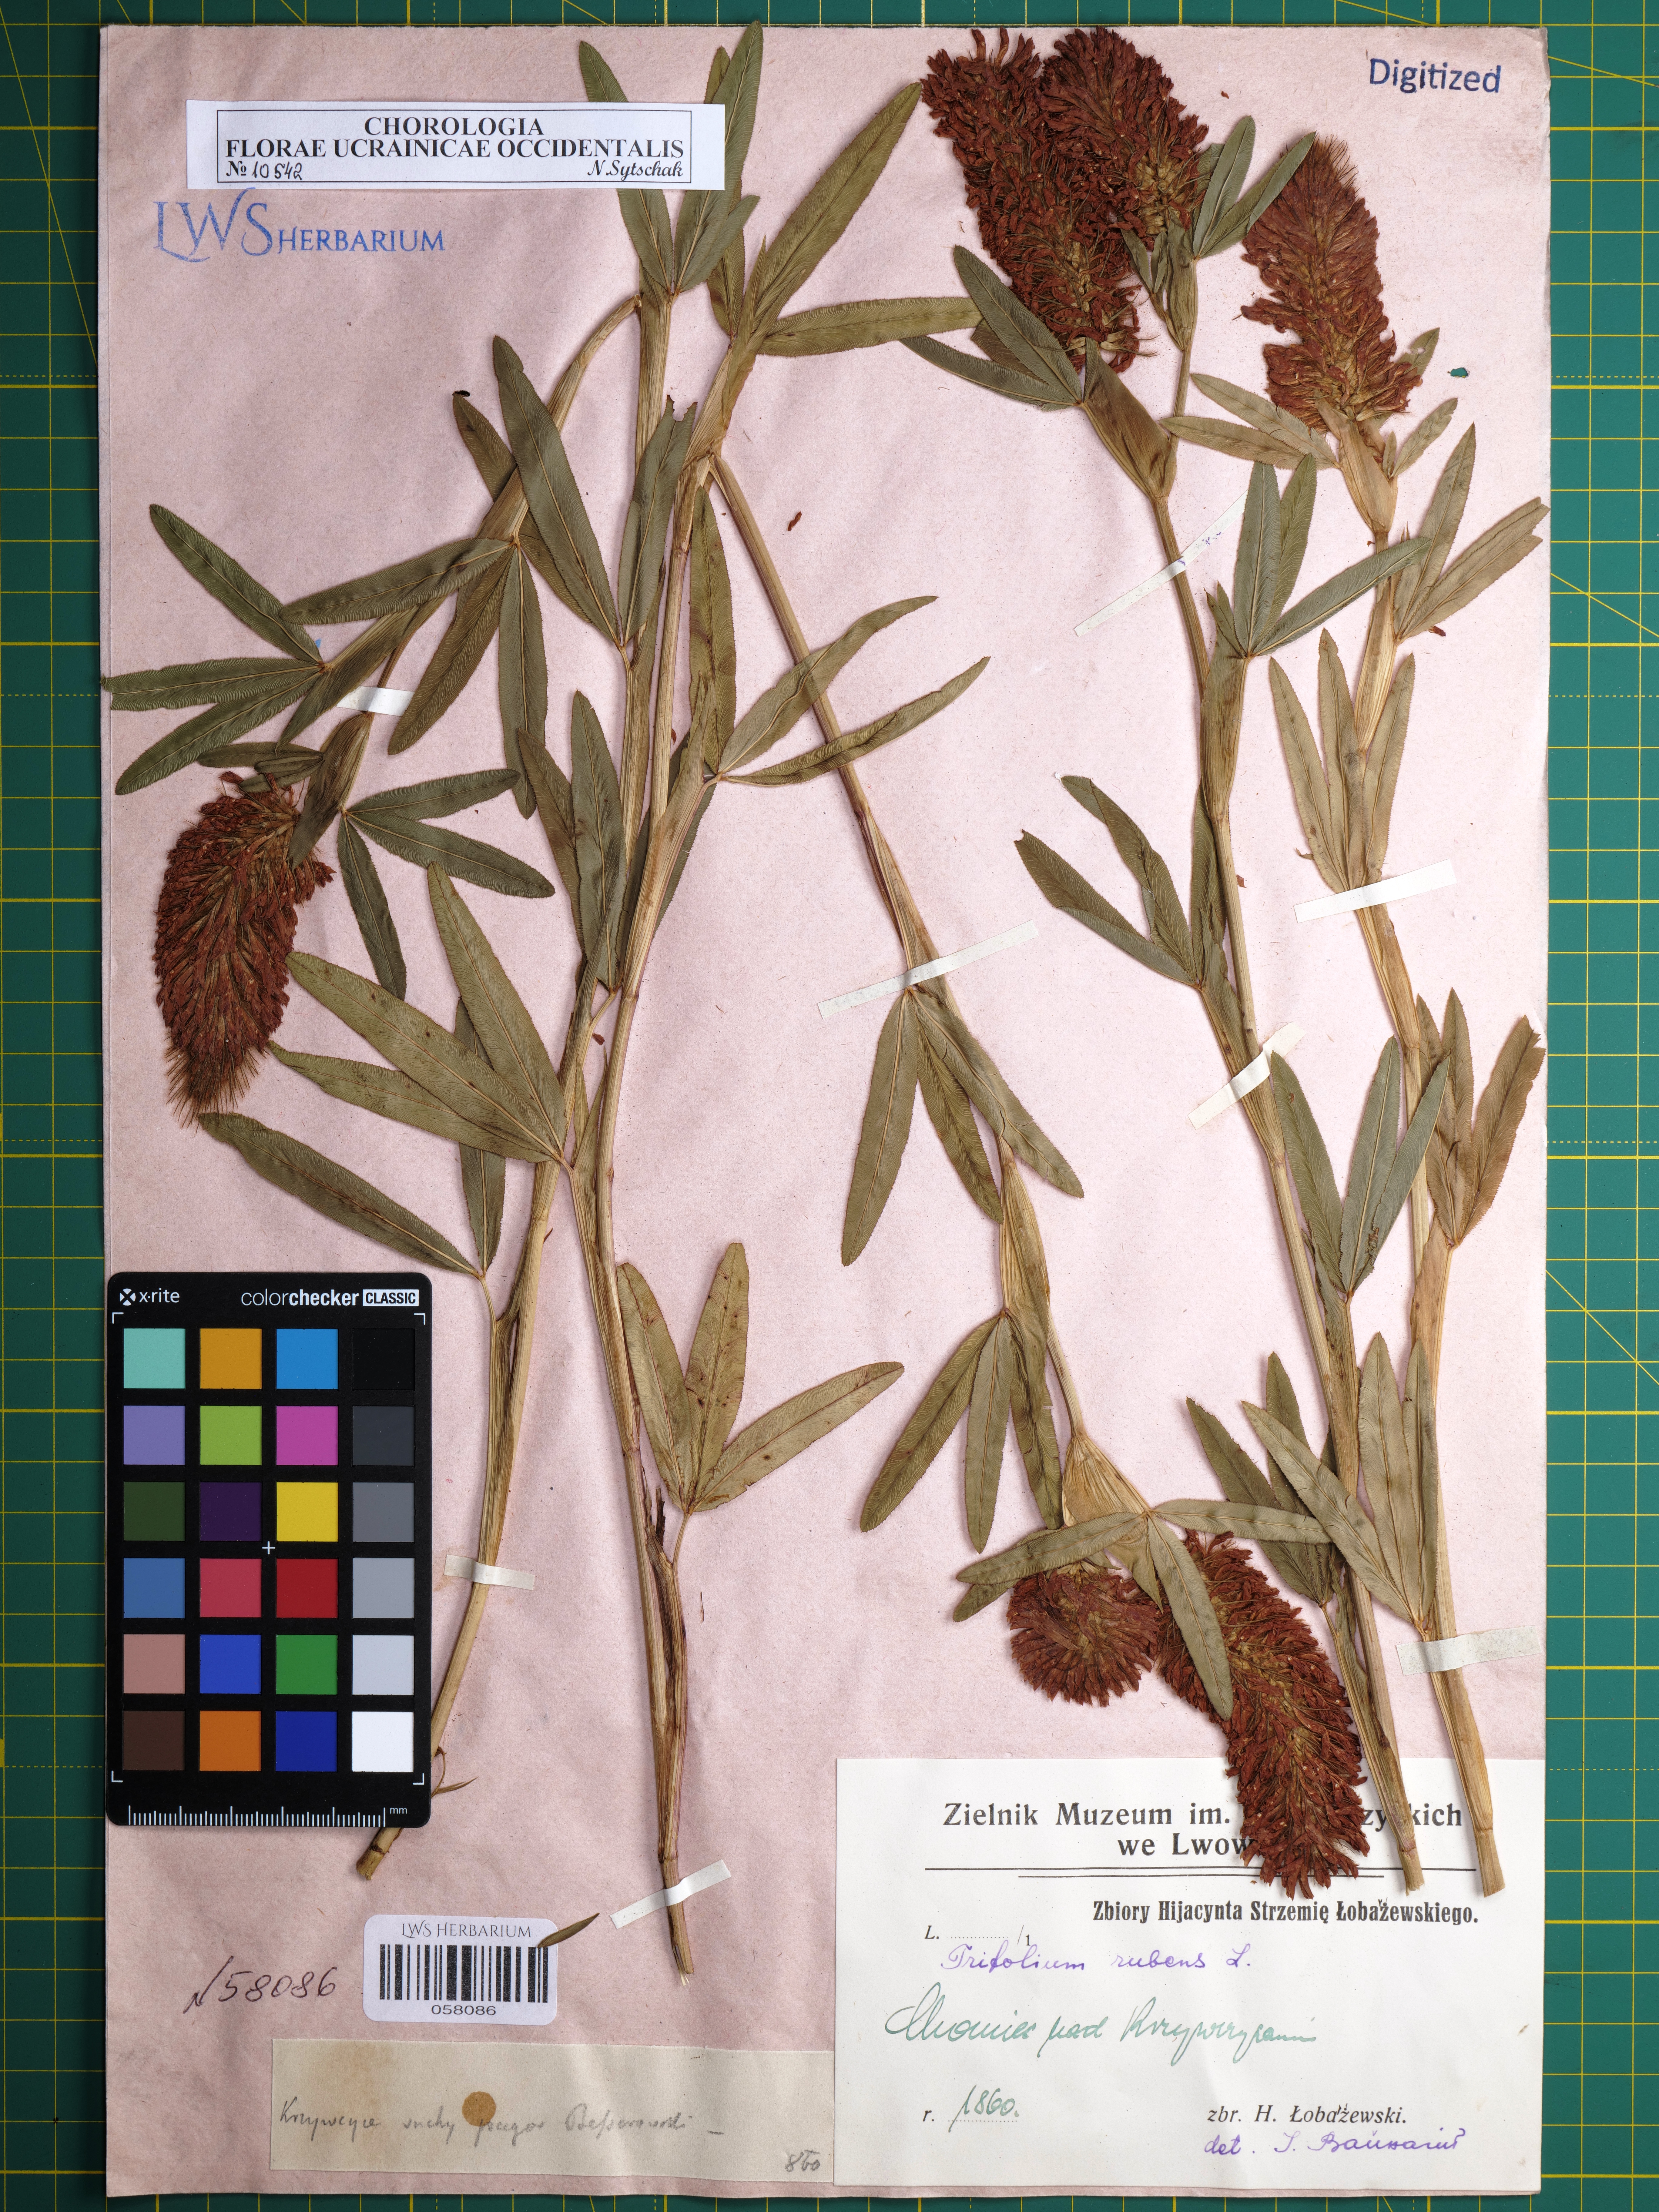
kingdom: Plantae
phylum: Tracheophyta
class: Magnoliopsida
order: Fabales
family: Fabaceae
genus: Trifolium
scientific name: Trifolium rubens
